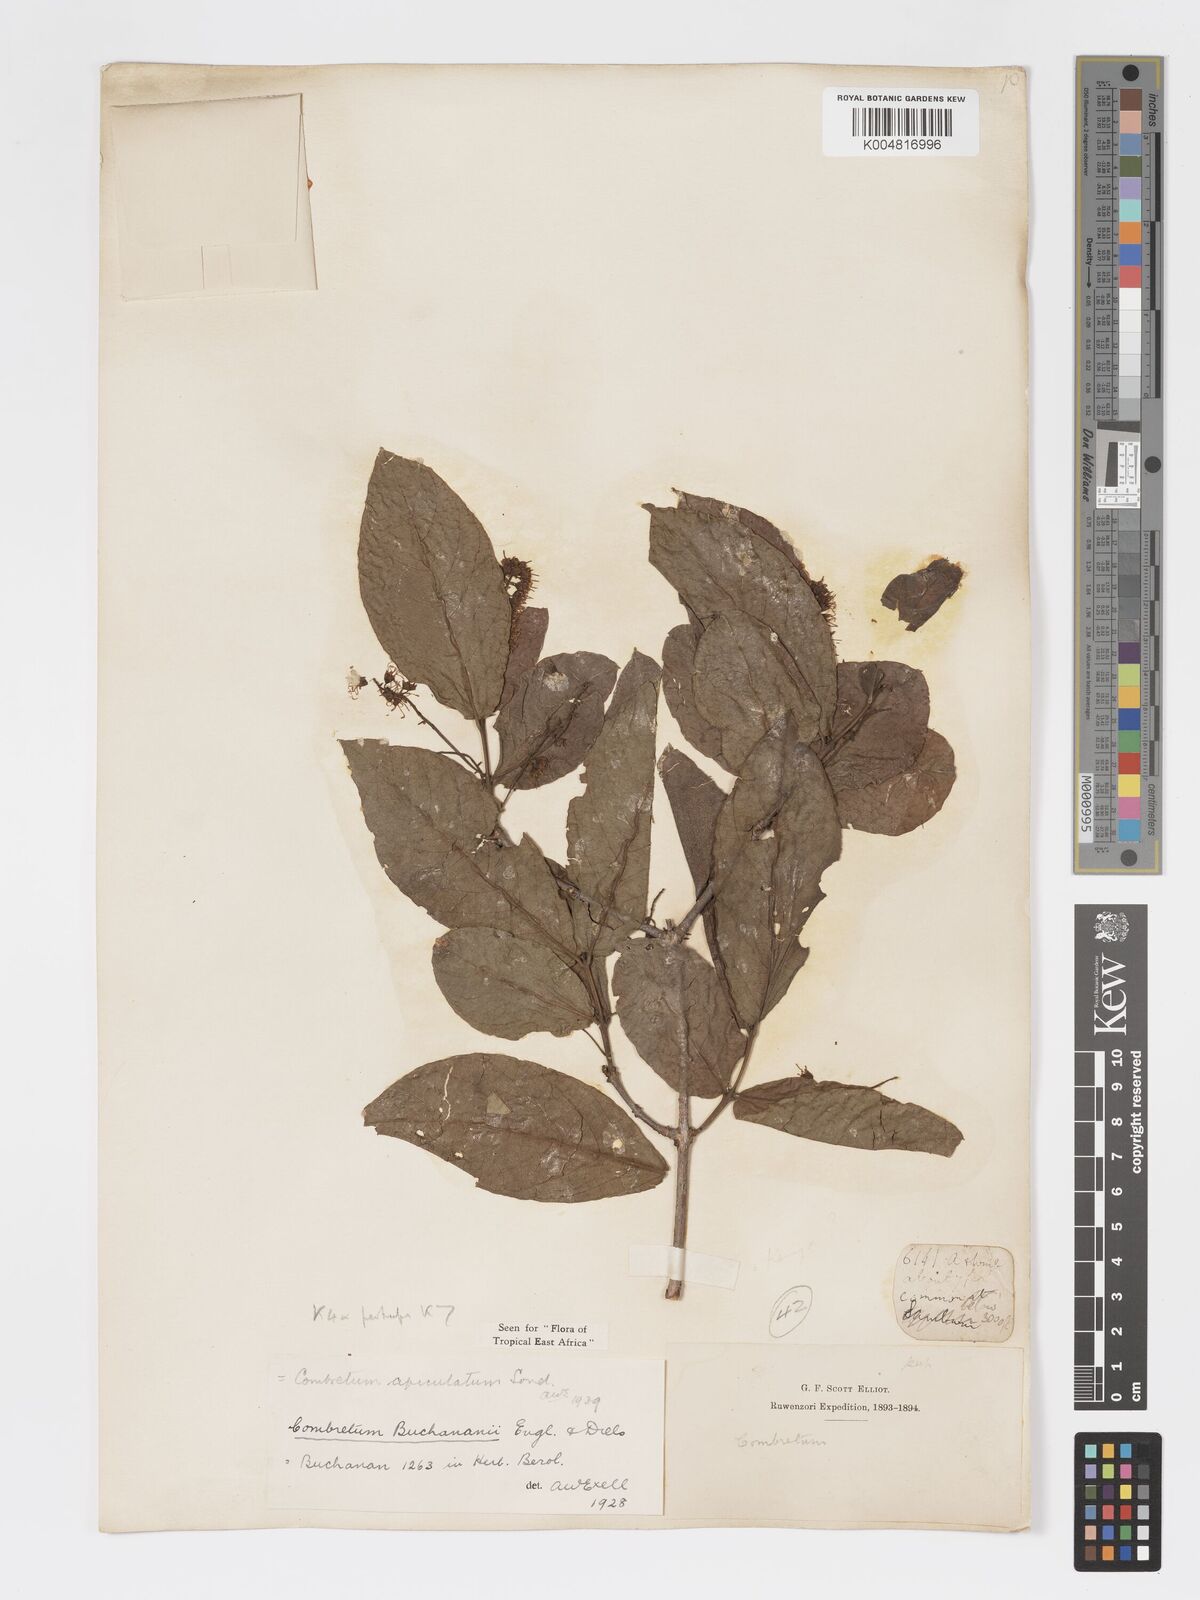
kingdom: Plantae
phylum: Tracheophyta
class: Magnoliopsida
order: Myrtales
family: Combretaceae
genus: Combretum
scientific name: Combretum apiculatum
